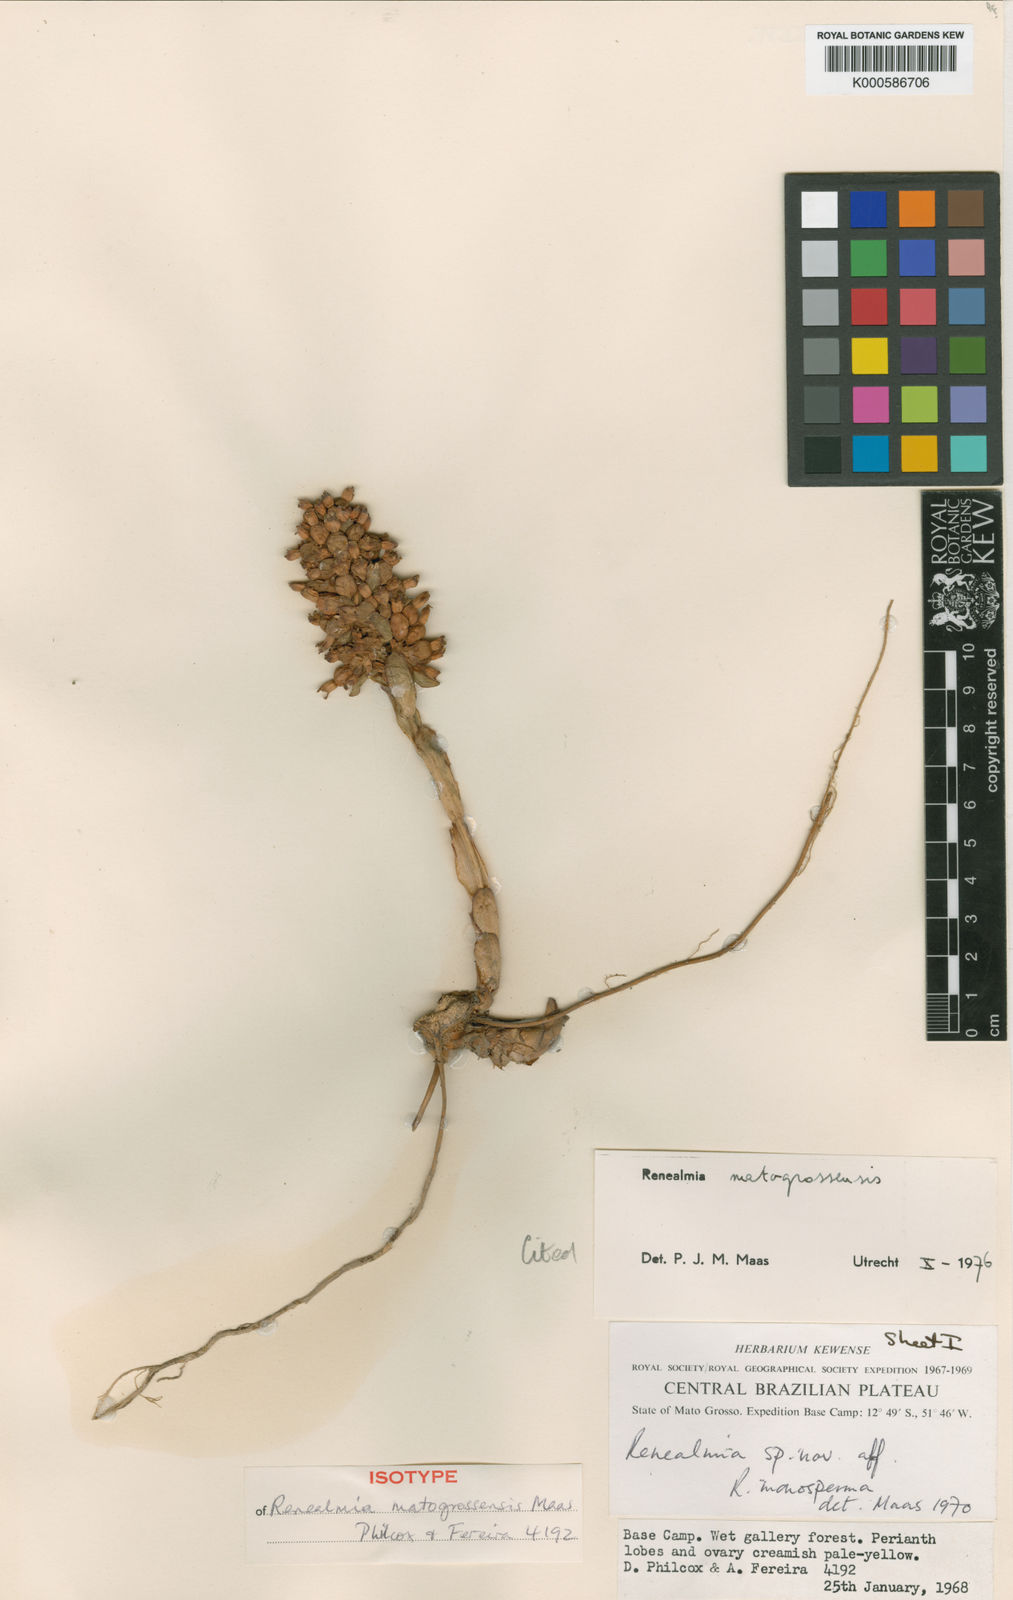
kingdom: Plantae
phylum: Tracheophyta
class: Liliopsida
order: Zingiberales
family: Zingiberaceae
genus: Renealmia
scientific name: Renealmia
